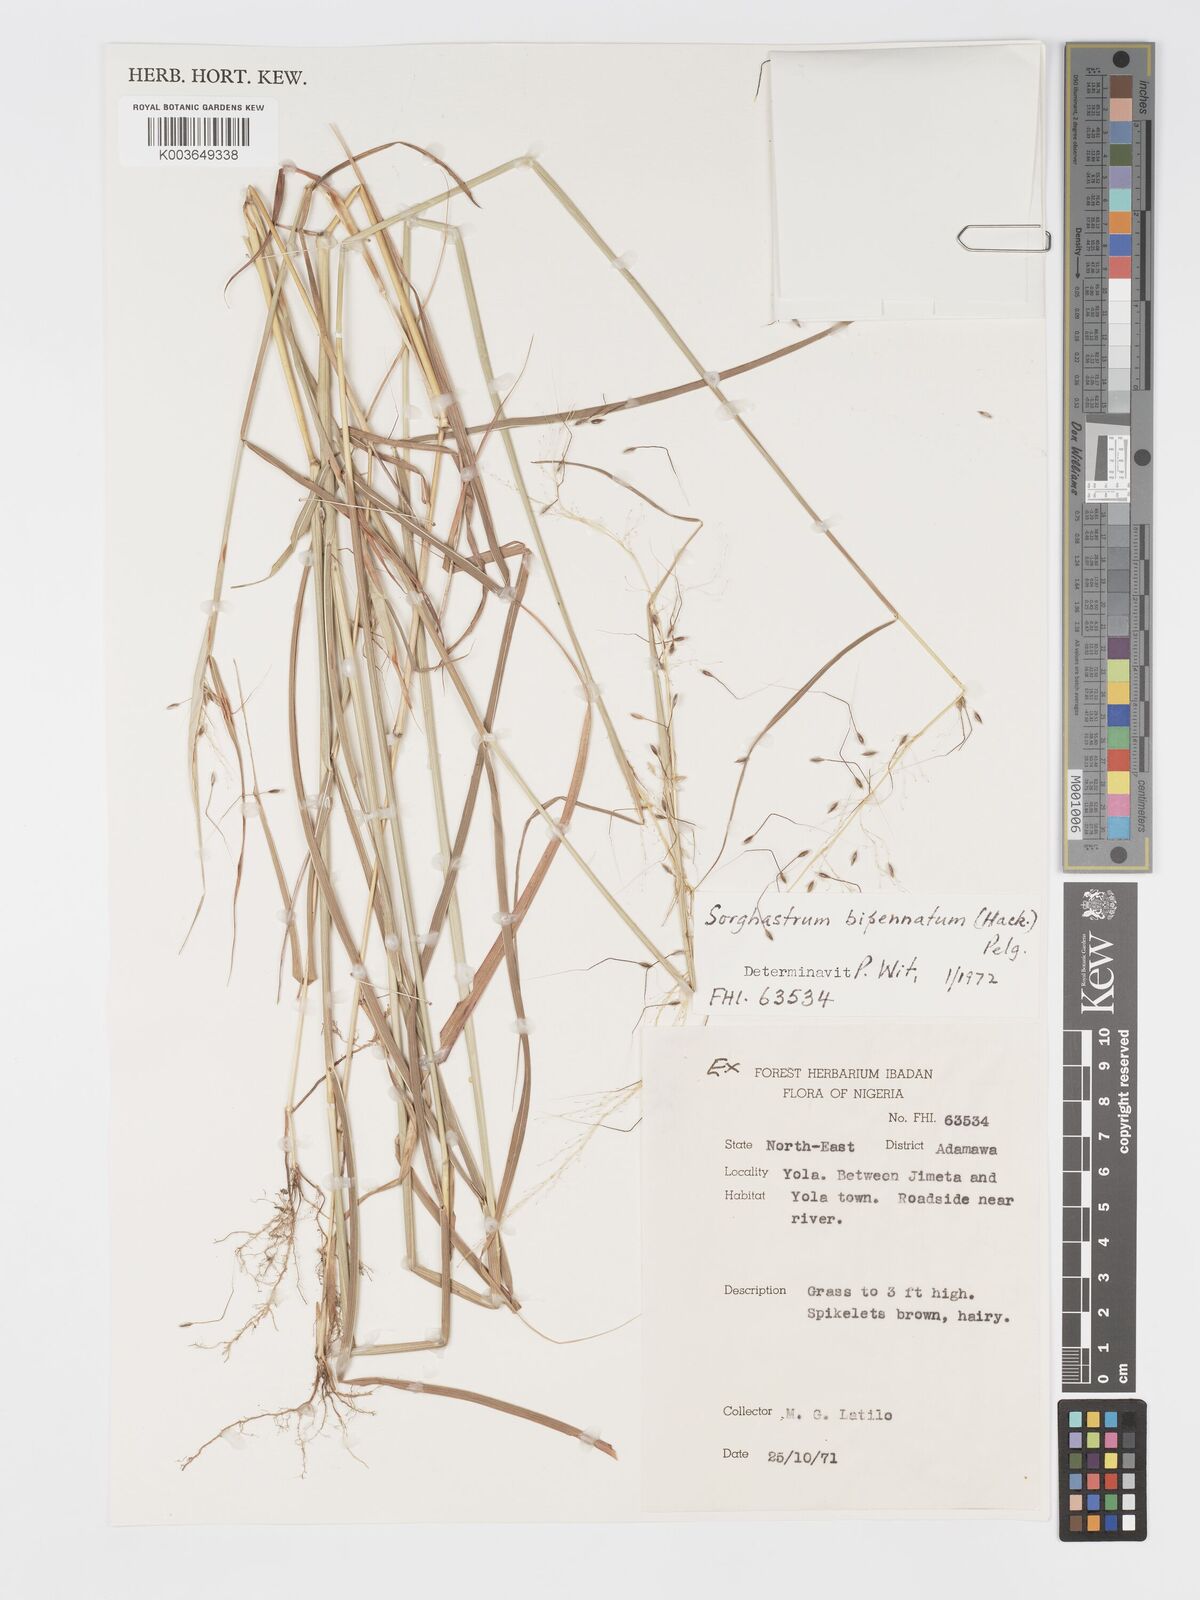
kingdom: Plantae
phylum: Tracheophyta
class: Liliopsida
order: Poales
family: Poaceae
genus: Sorghastrum
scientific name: Sorghastrum incompletum
